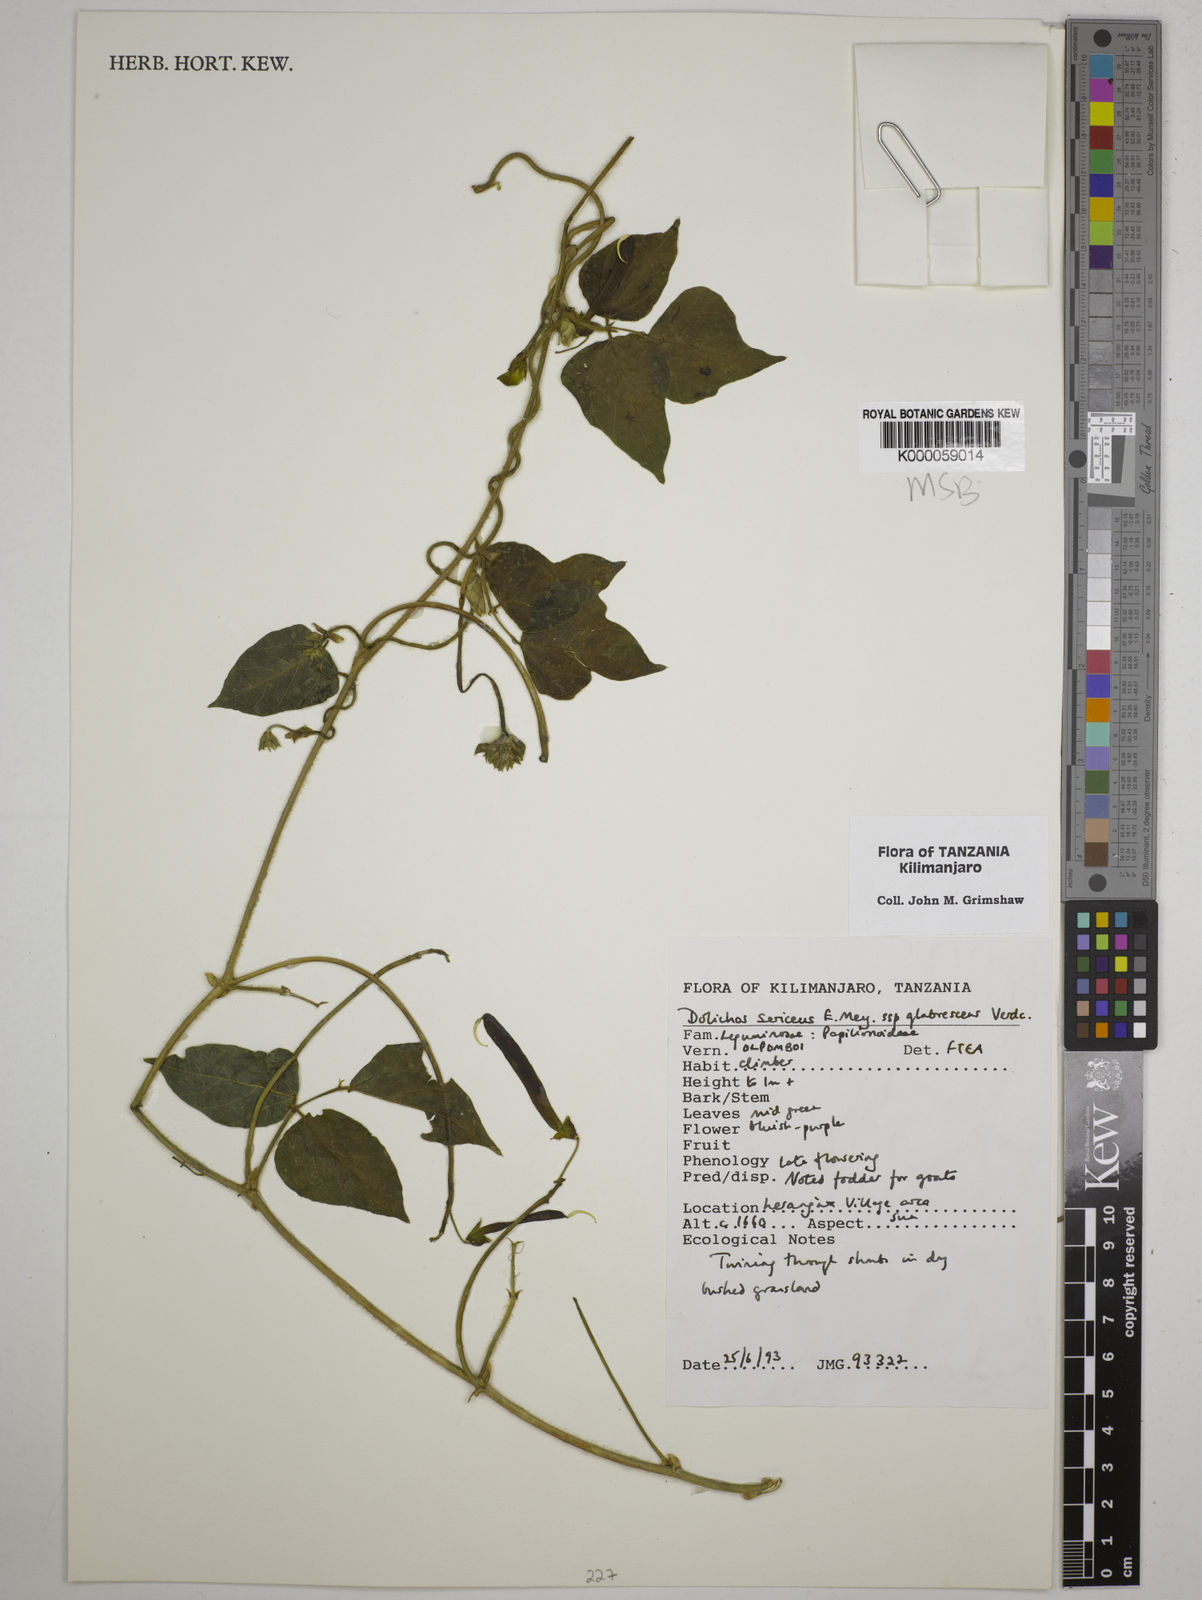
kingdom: Plantae
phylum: Tracheophyta
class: Magnoliopsida
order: Fabales
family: Fabaceae
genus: Dolichos
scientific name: Dolichos sericeus
